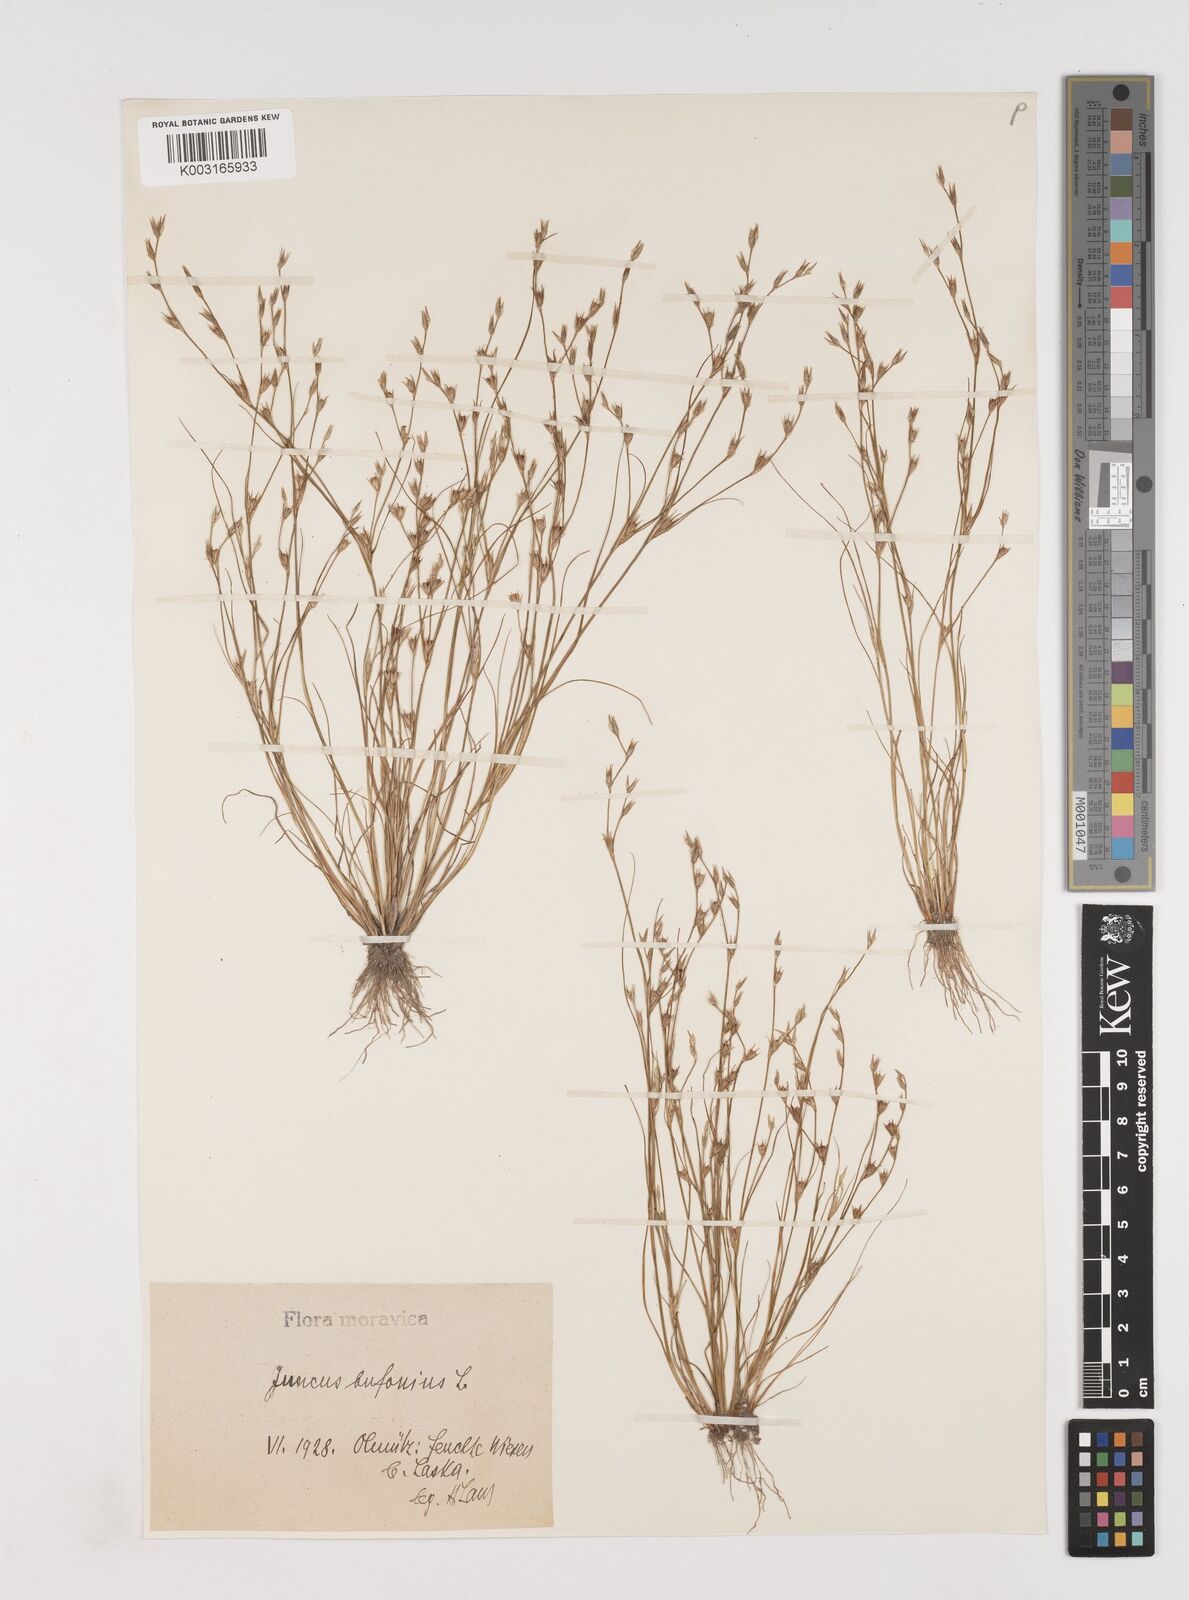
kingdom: Plantae
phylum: Tracheophyta
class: Liliopsida
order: Poales
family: Juncaceae
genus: Juncus
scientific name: Juncus bufonius
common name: Toad rush
